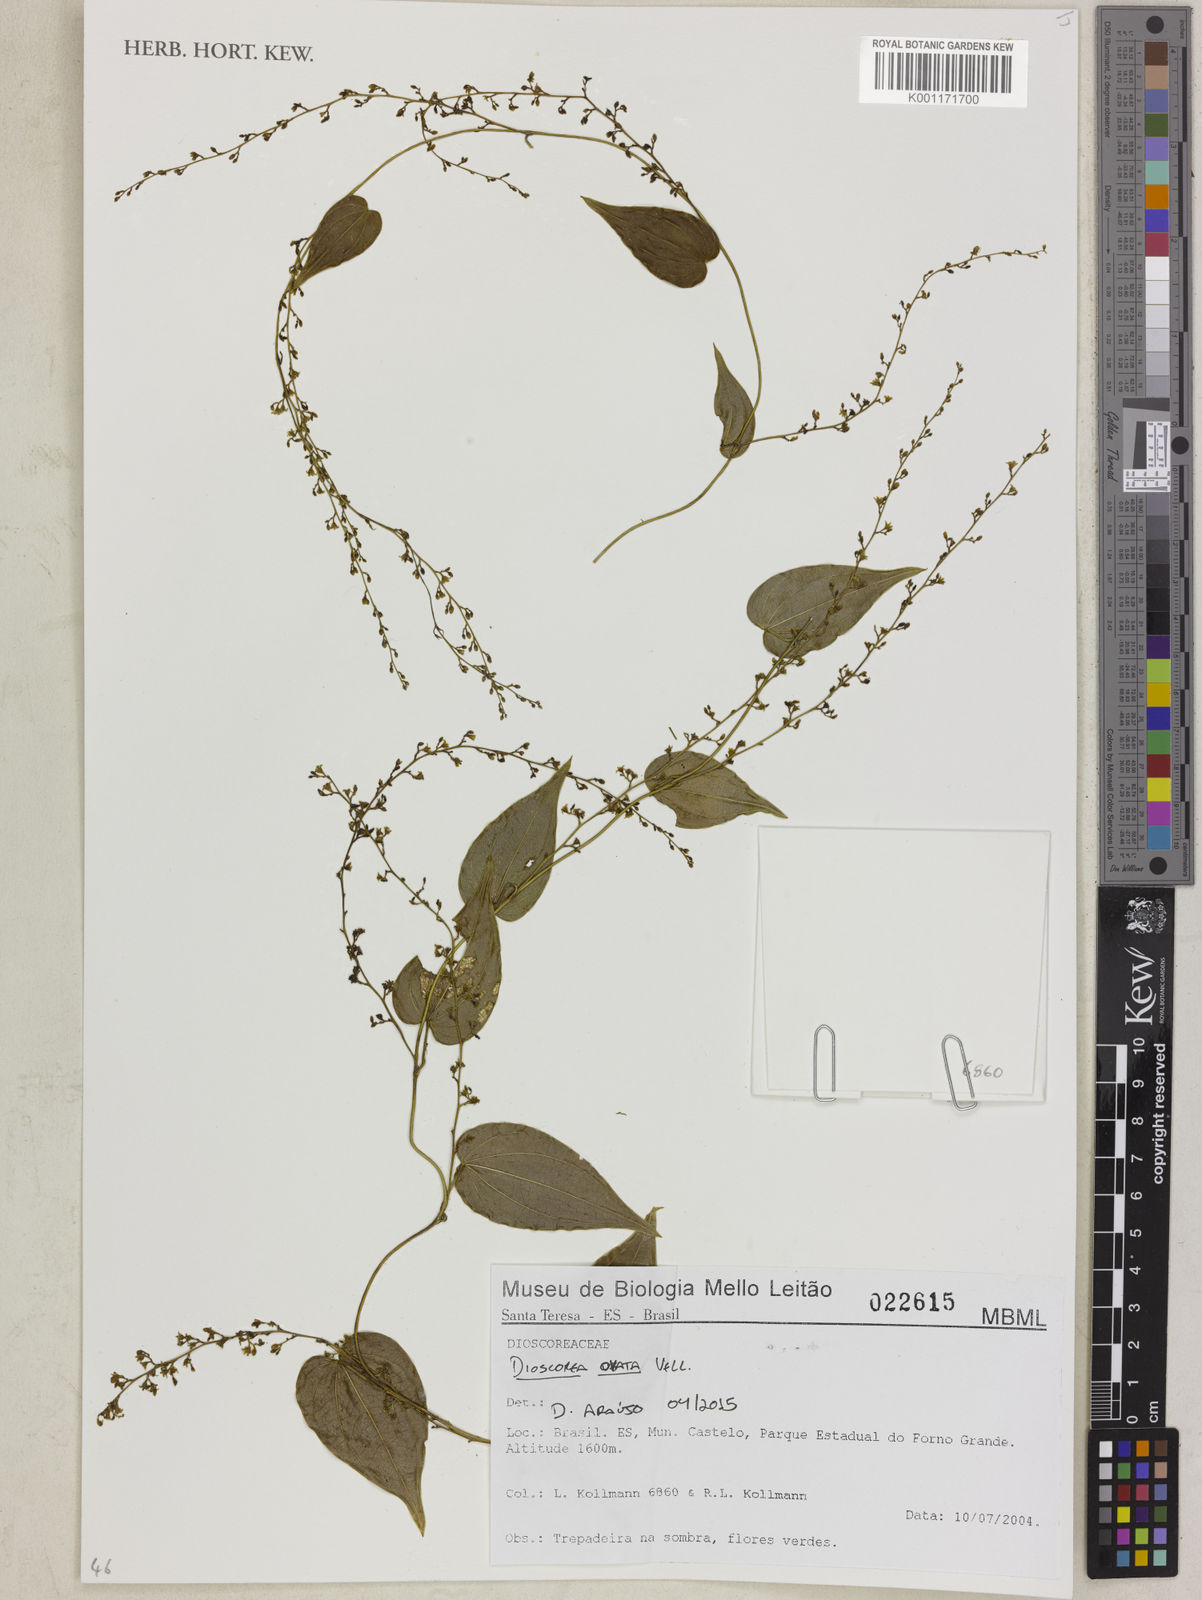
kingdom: Plantae
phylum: Tracheophyta
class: Liliopsida
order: Dioscoreales
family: Dioscoreaceae
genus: Dioscorea
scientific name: Dioscorea ovata
